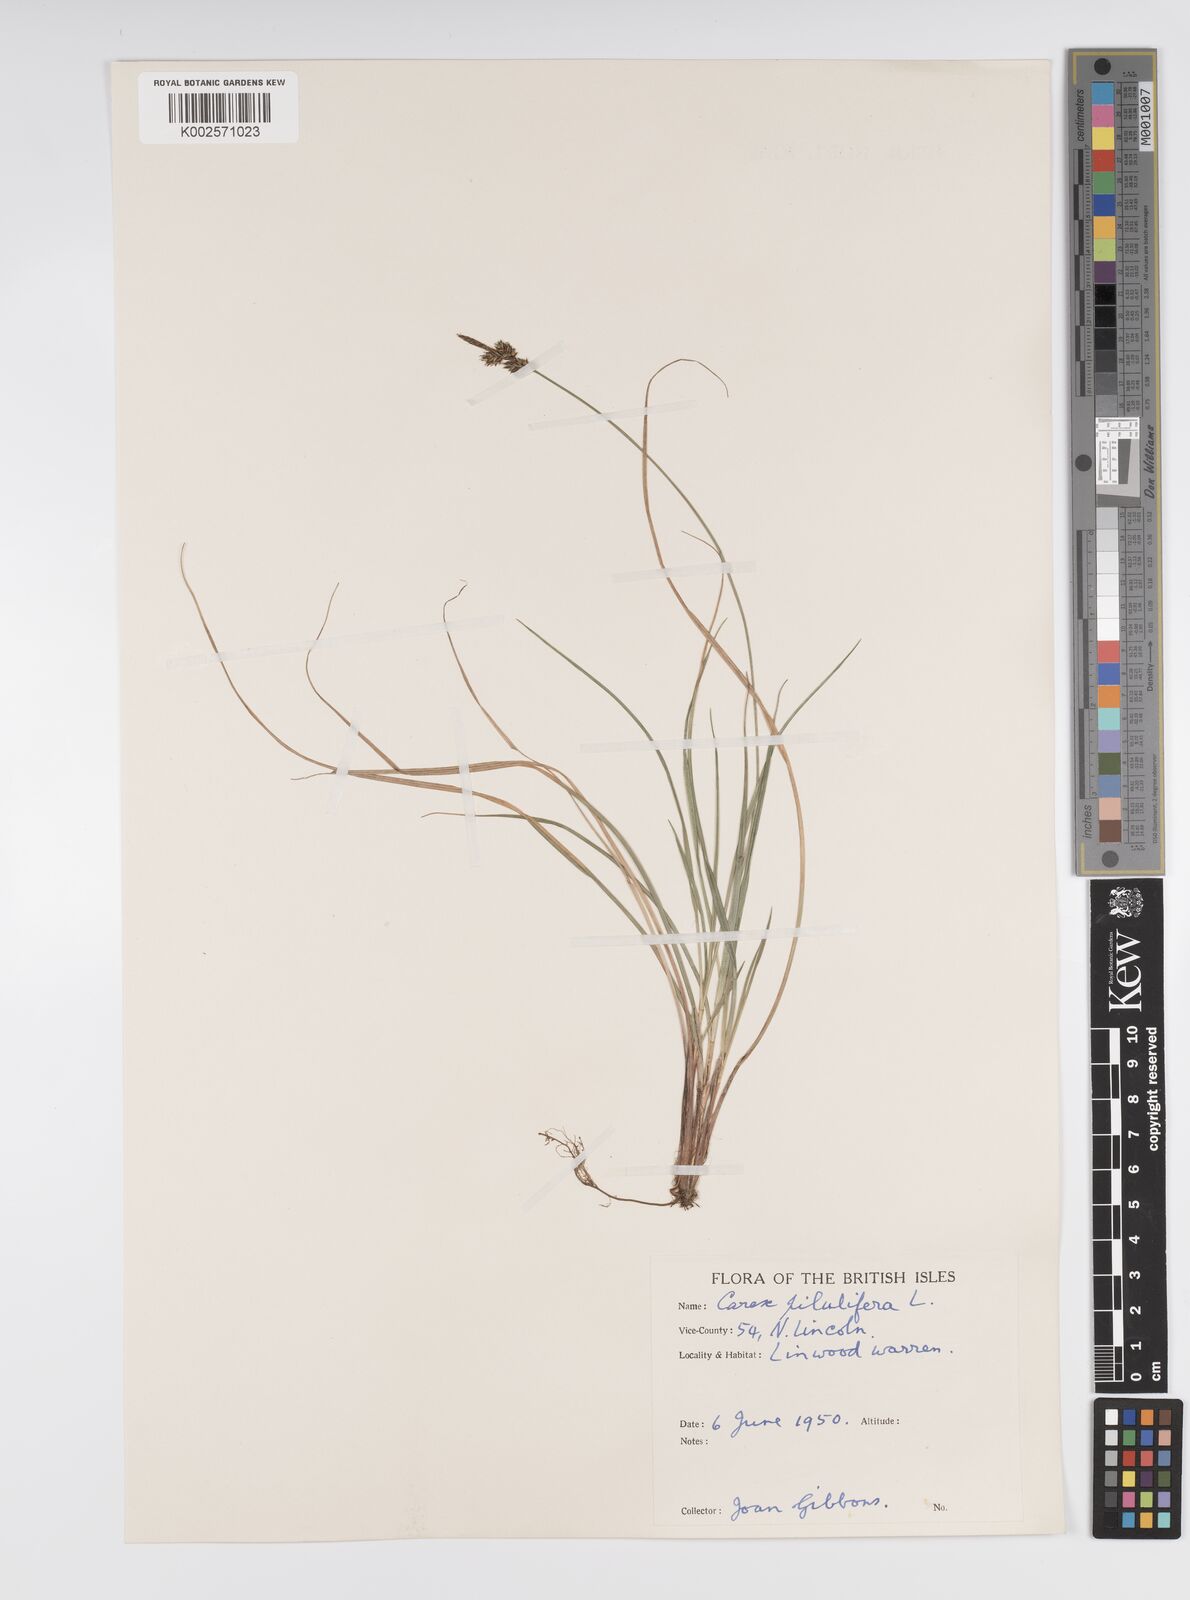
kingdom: Plantae
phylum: Tracheophyta
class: Liliopsida
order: Poales
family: Cyperaceae
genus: Carex
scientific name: Carex pilulifera
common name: Pill sedge
